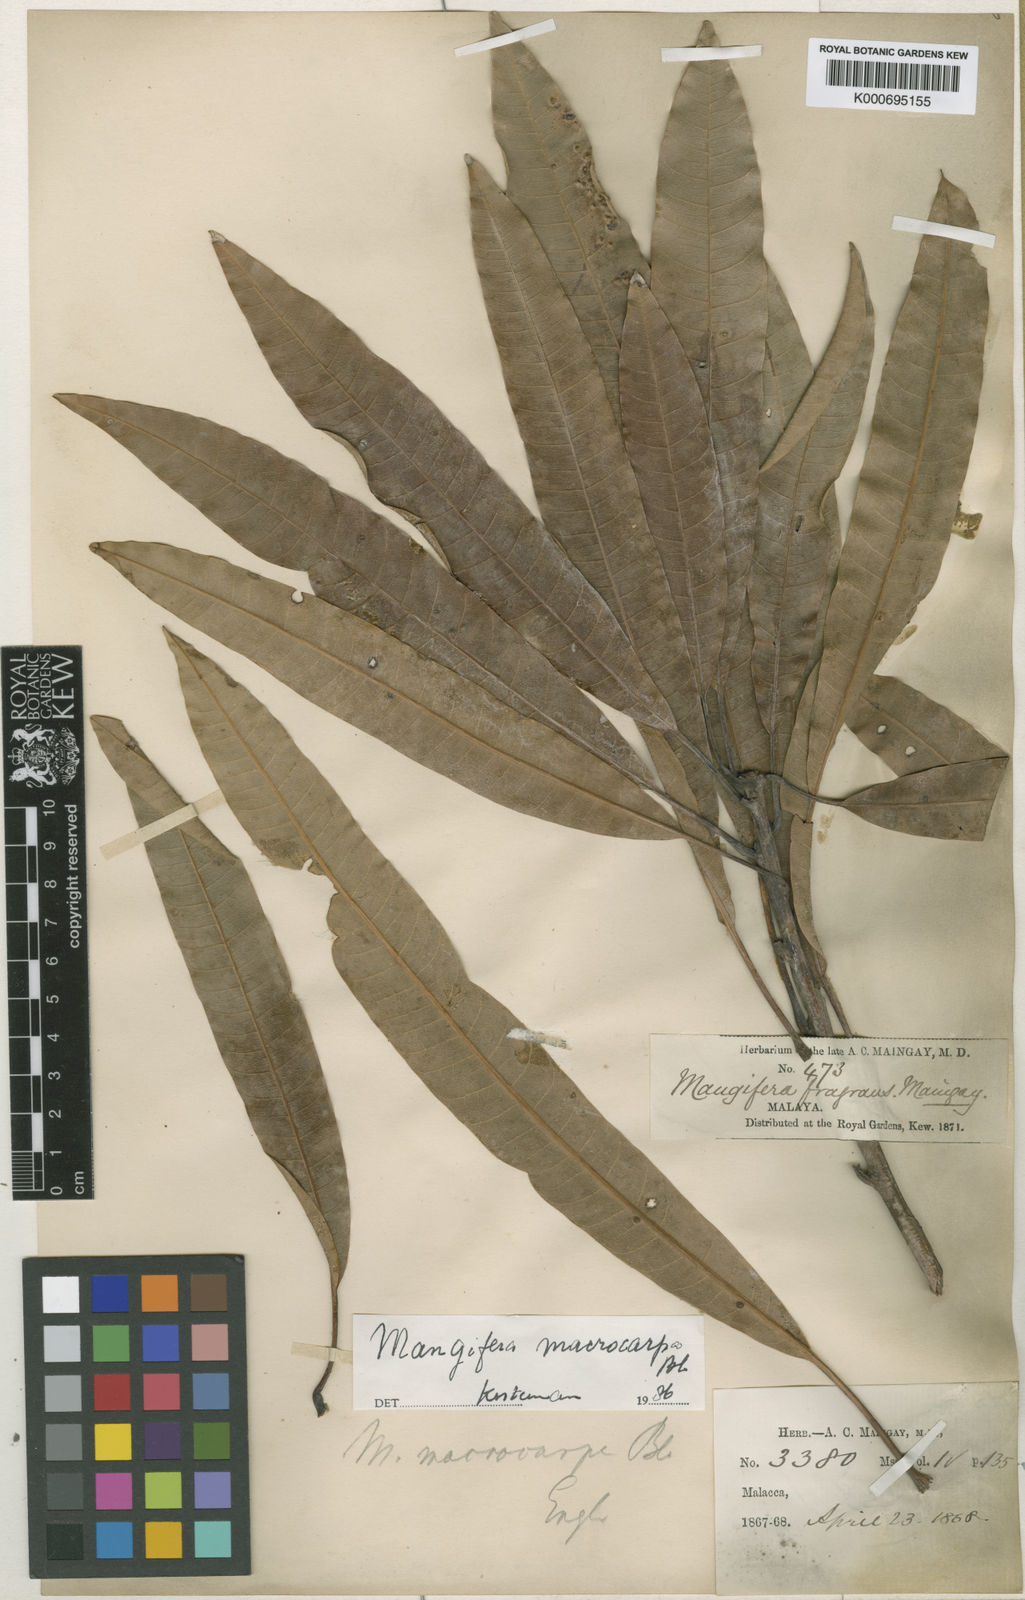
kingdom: Plantae
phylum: Tracheophyta
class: Magnoliopsida
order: Sapindales
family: Anacardiaceae
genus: Mangifera
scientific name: Mangifera macrocarpa
